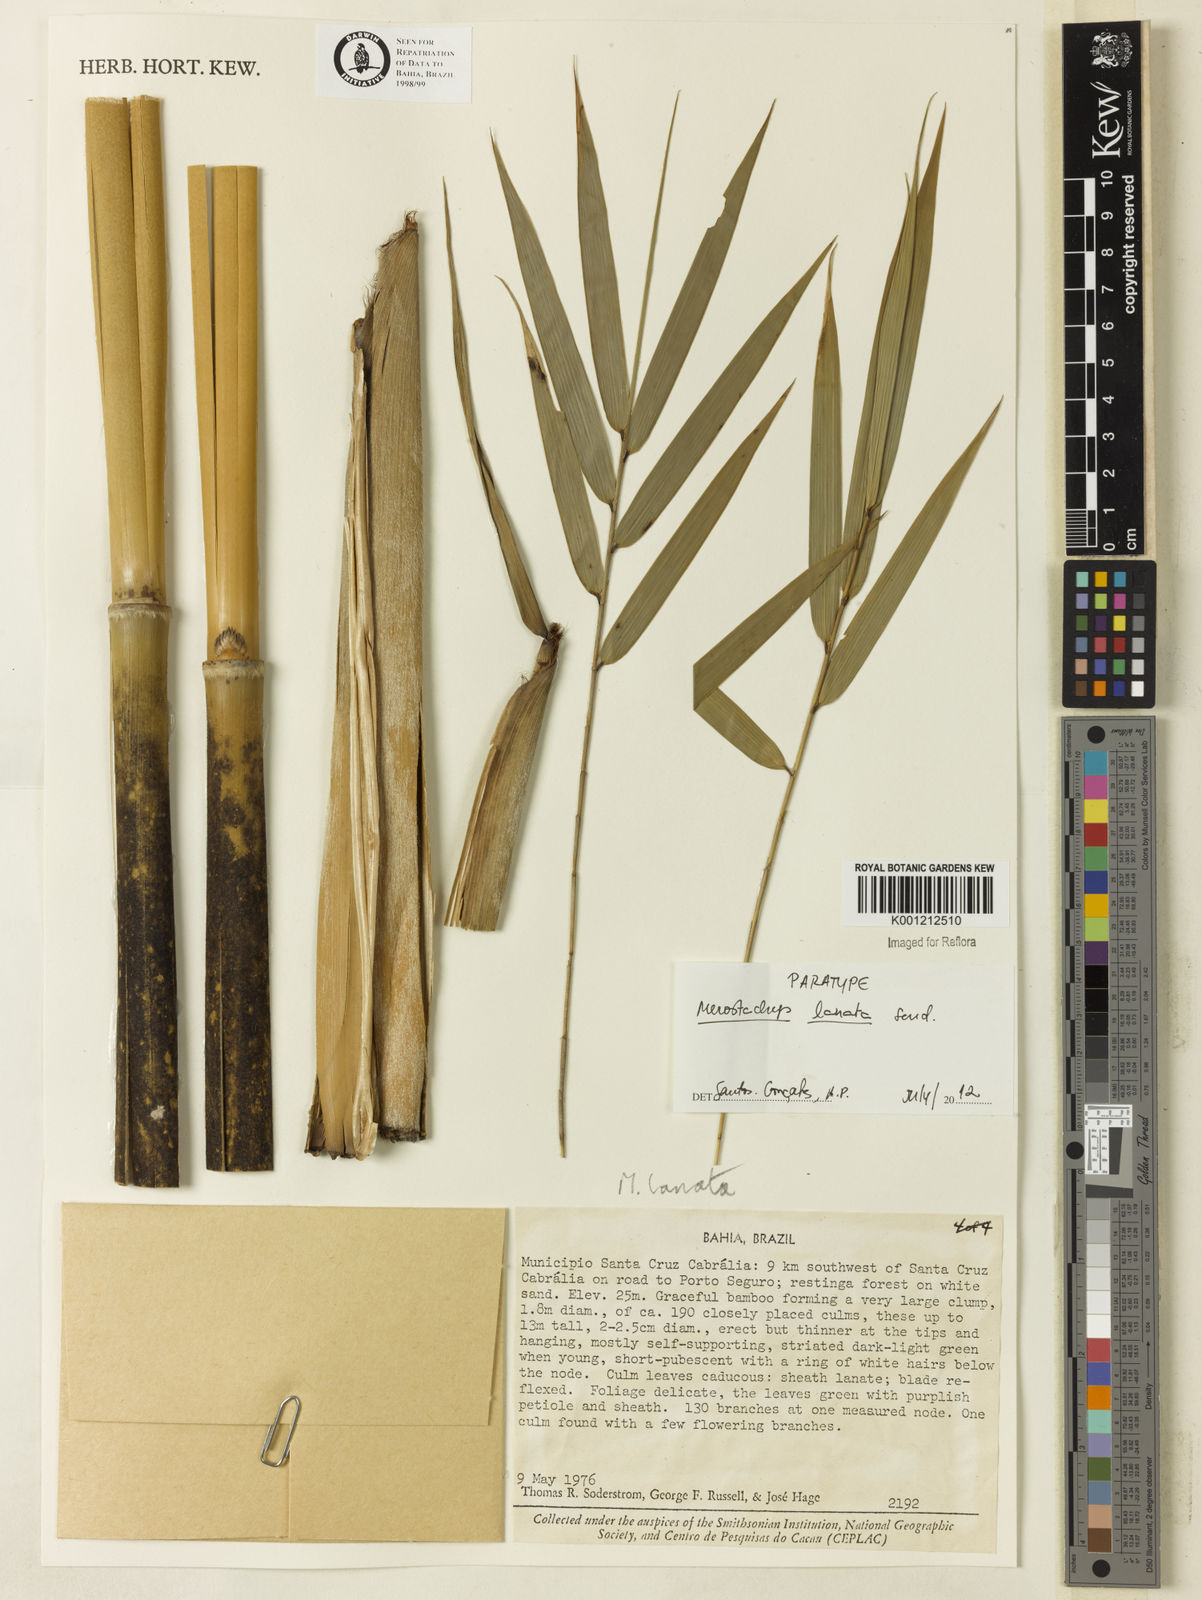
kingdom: Plantae
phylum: Tracheophyta
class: Liliopsida
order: Poales
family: Poaceae
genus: Merostachys
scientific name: Merostachys lanata
